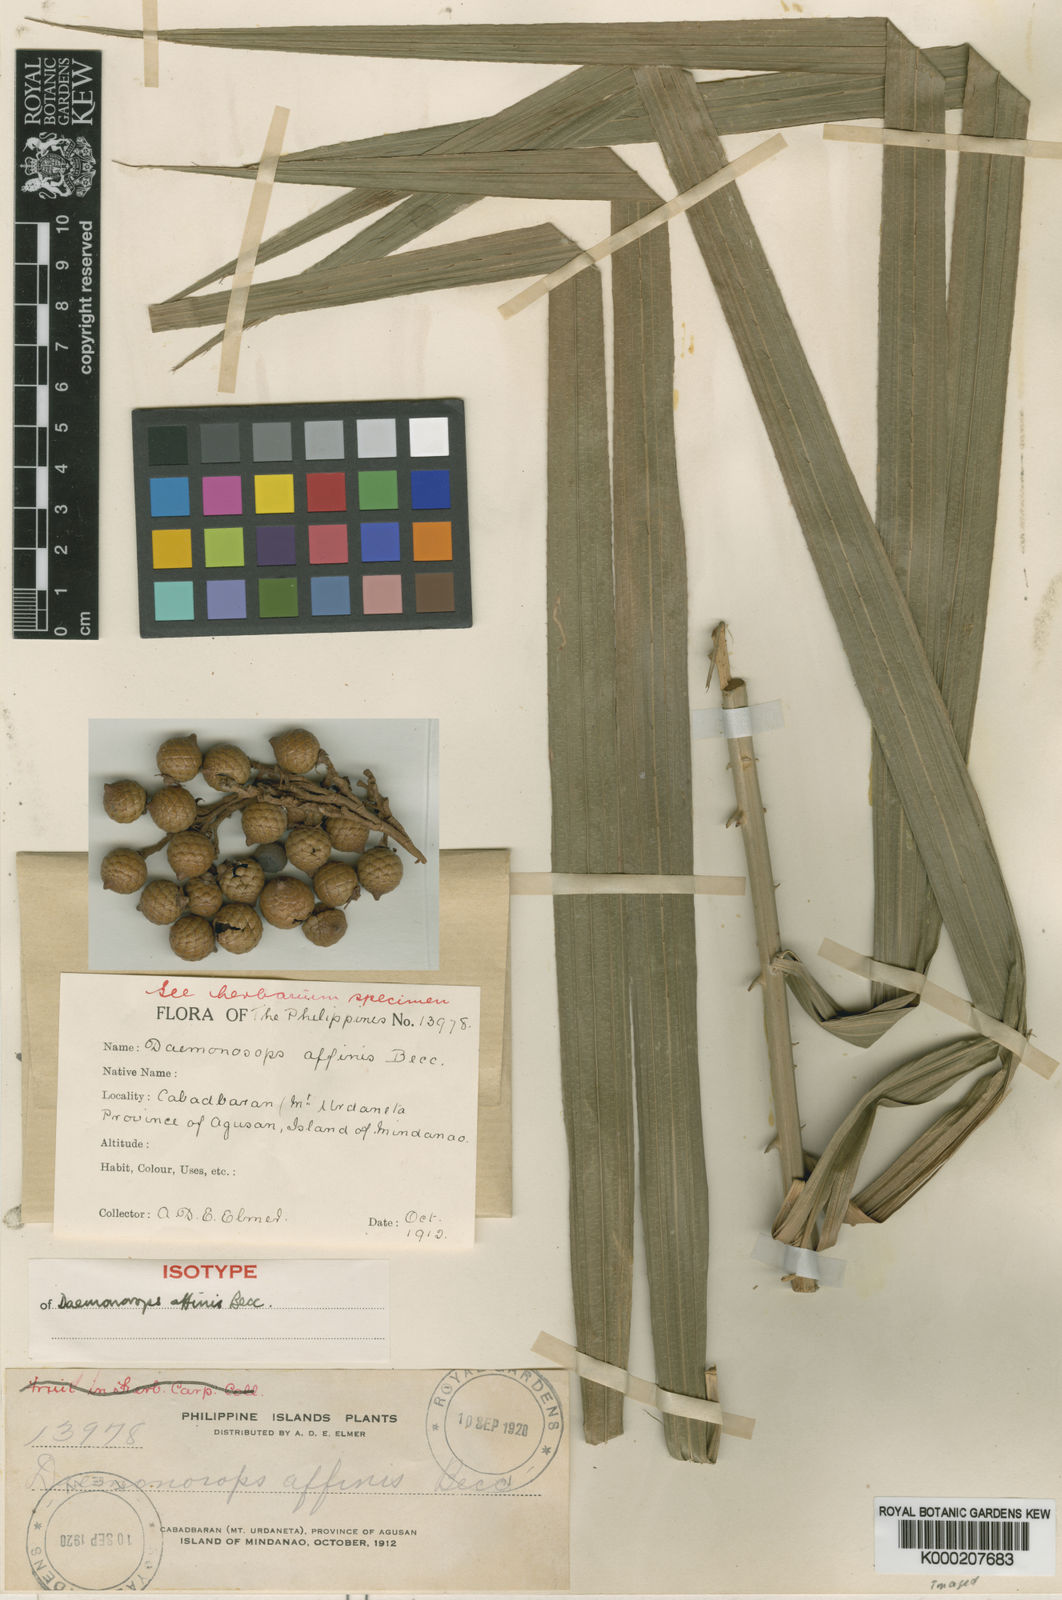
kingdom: Plantae
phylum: Tracheophyta
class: Liliopsida
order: Arecales
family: Arecaceae
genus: Calamus
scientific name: Calamus oblongus
